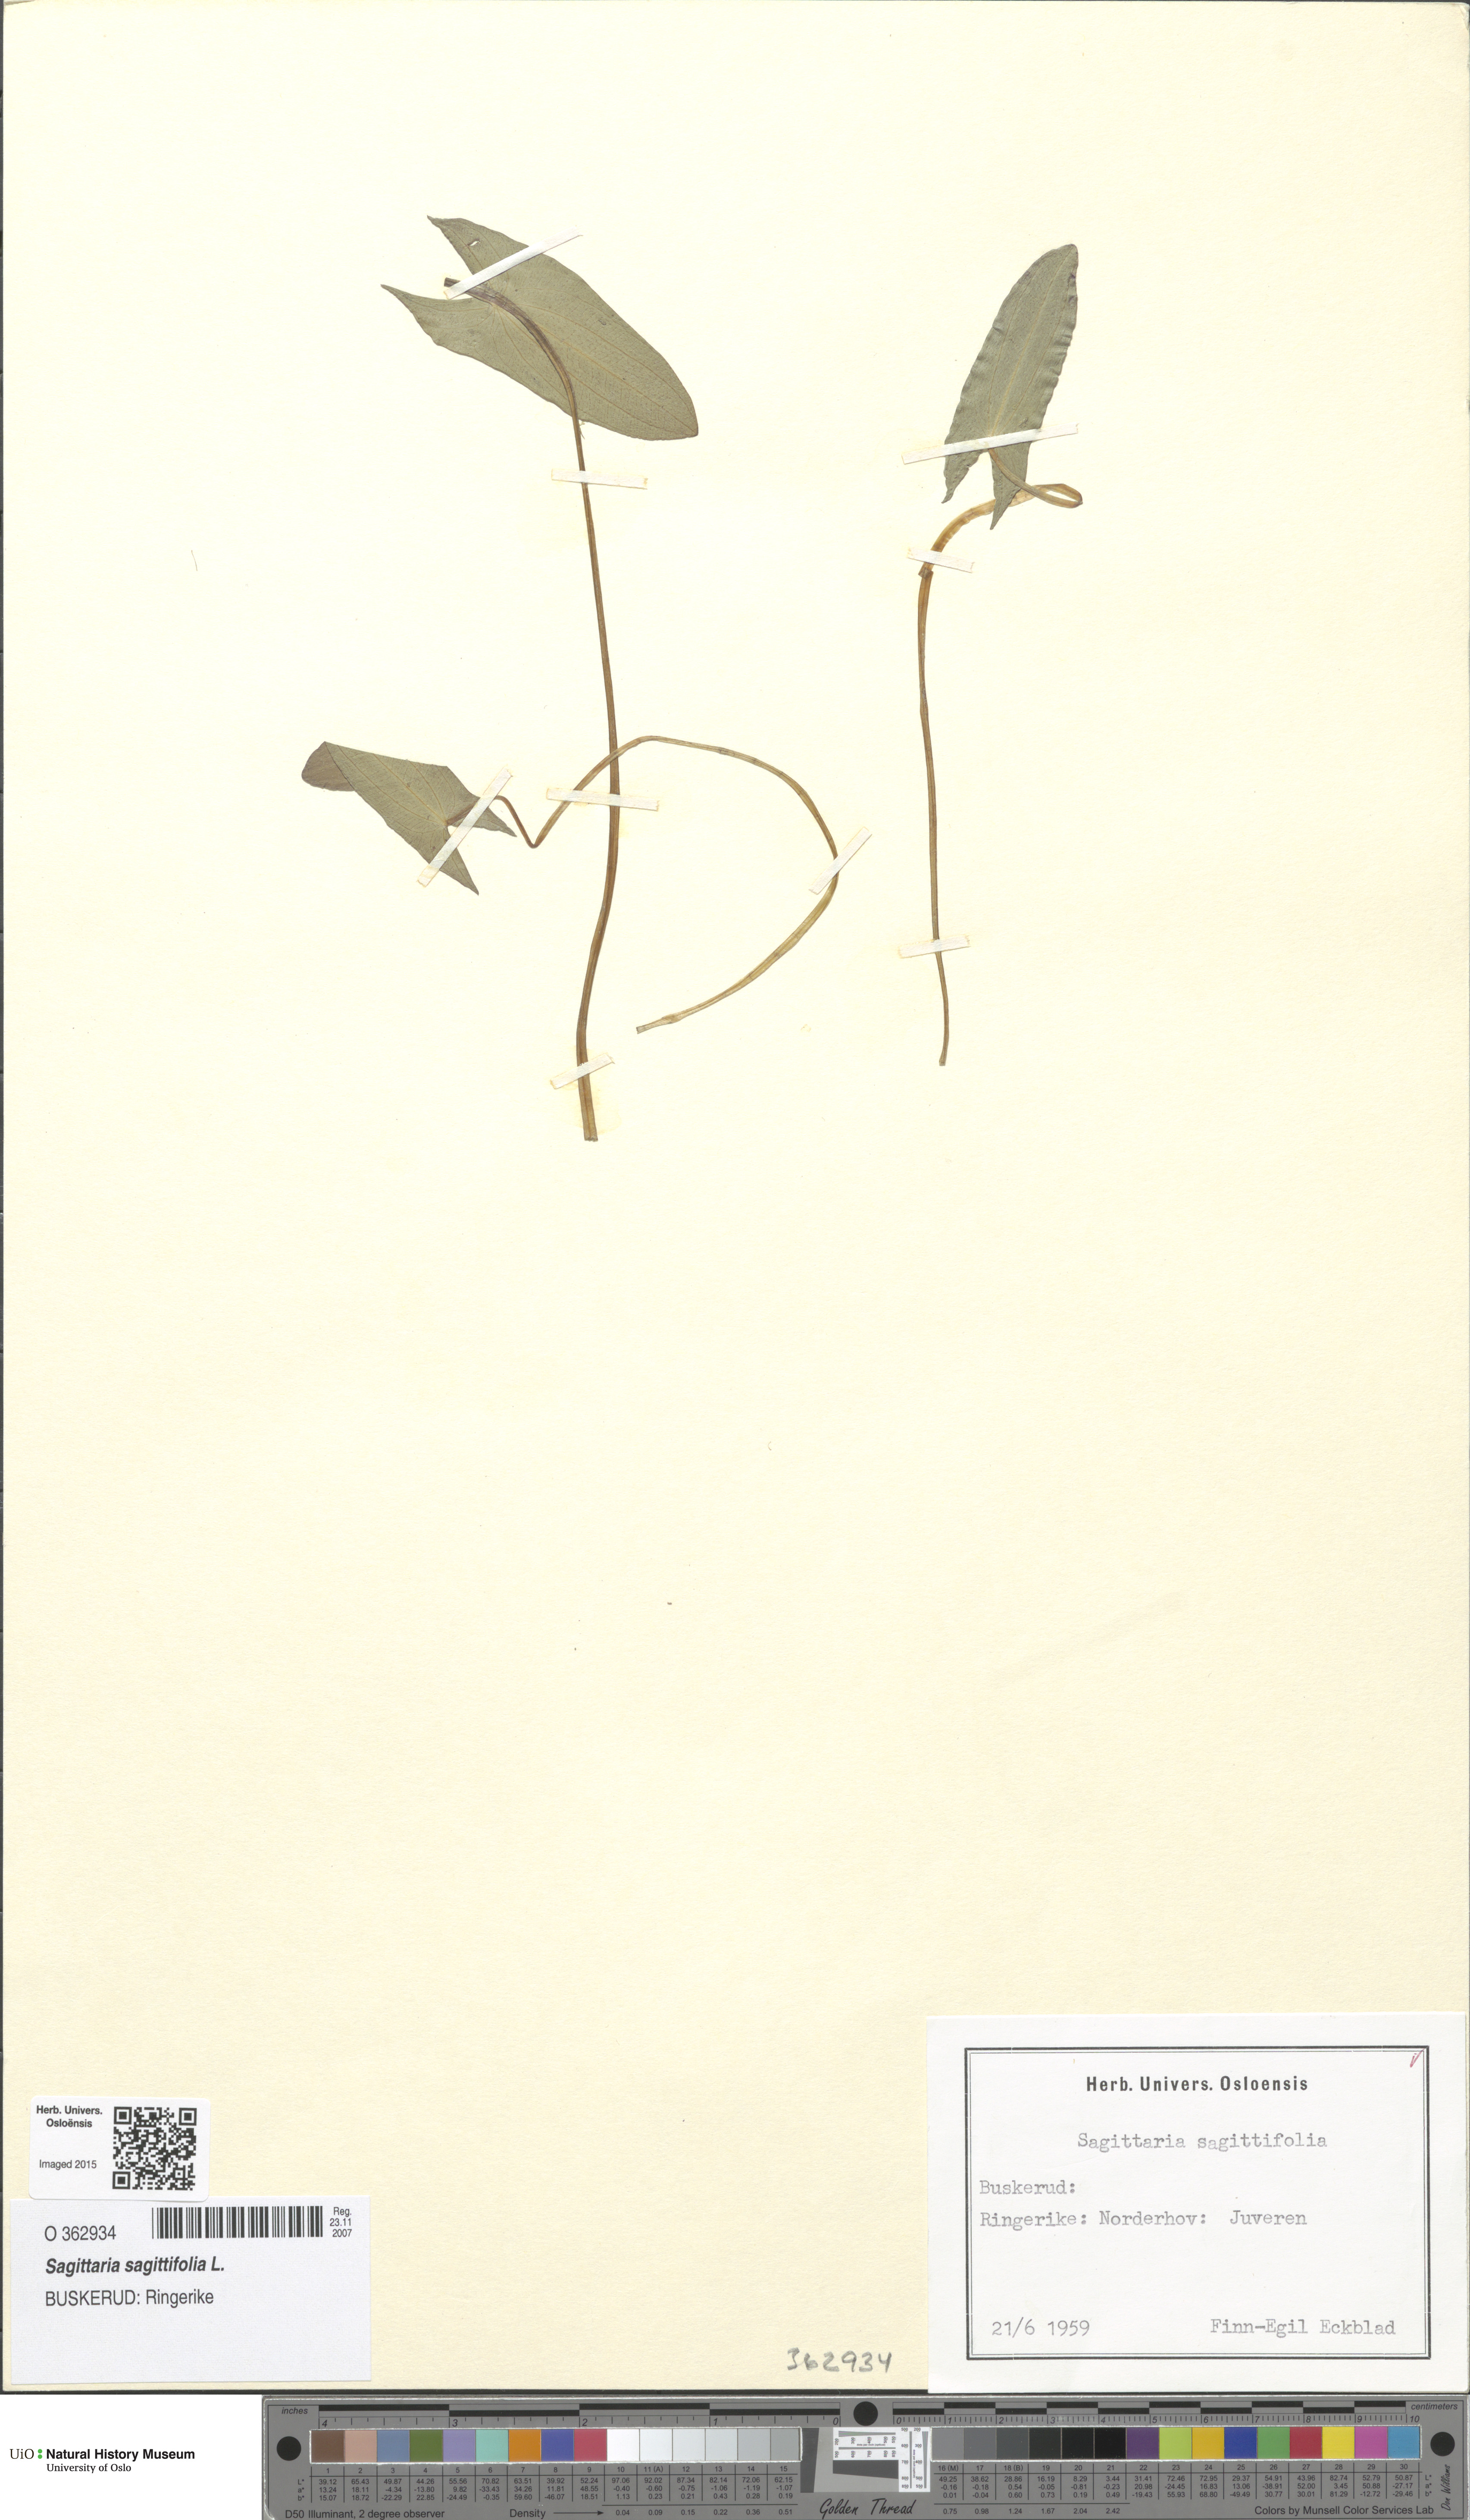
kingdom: Plantae
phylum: Tracheophyta
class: Liliopsida
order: Alismatales
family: Alismataceae
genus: Sagittaria
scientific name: Sagittaria sagittifolia
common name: Arrowhead
